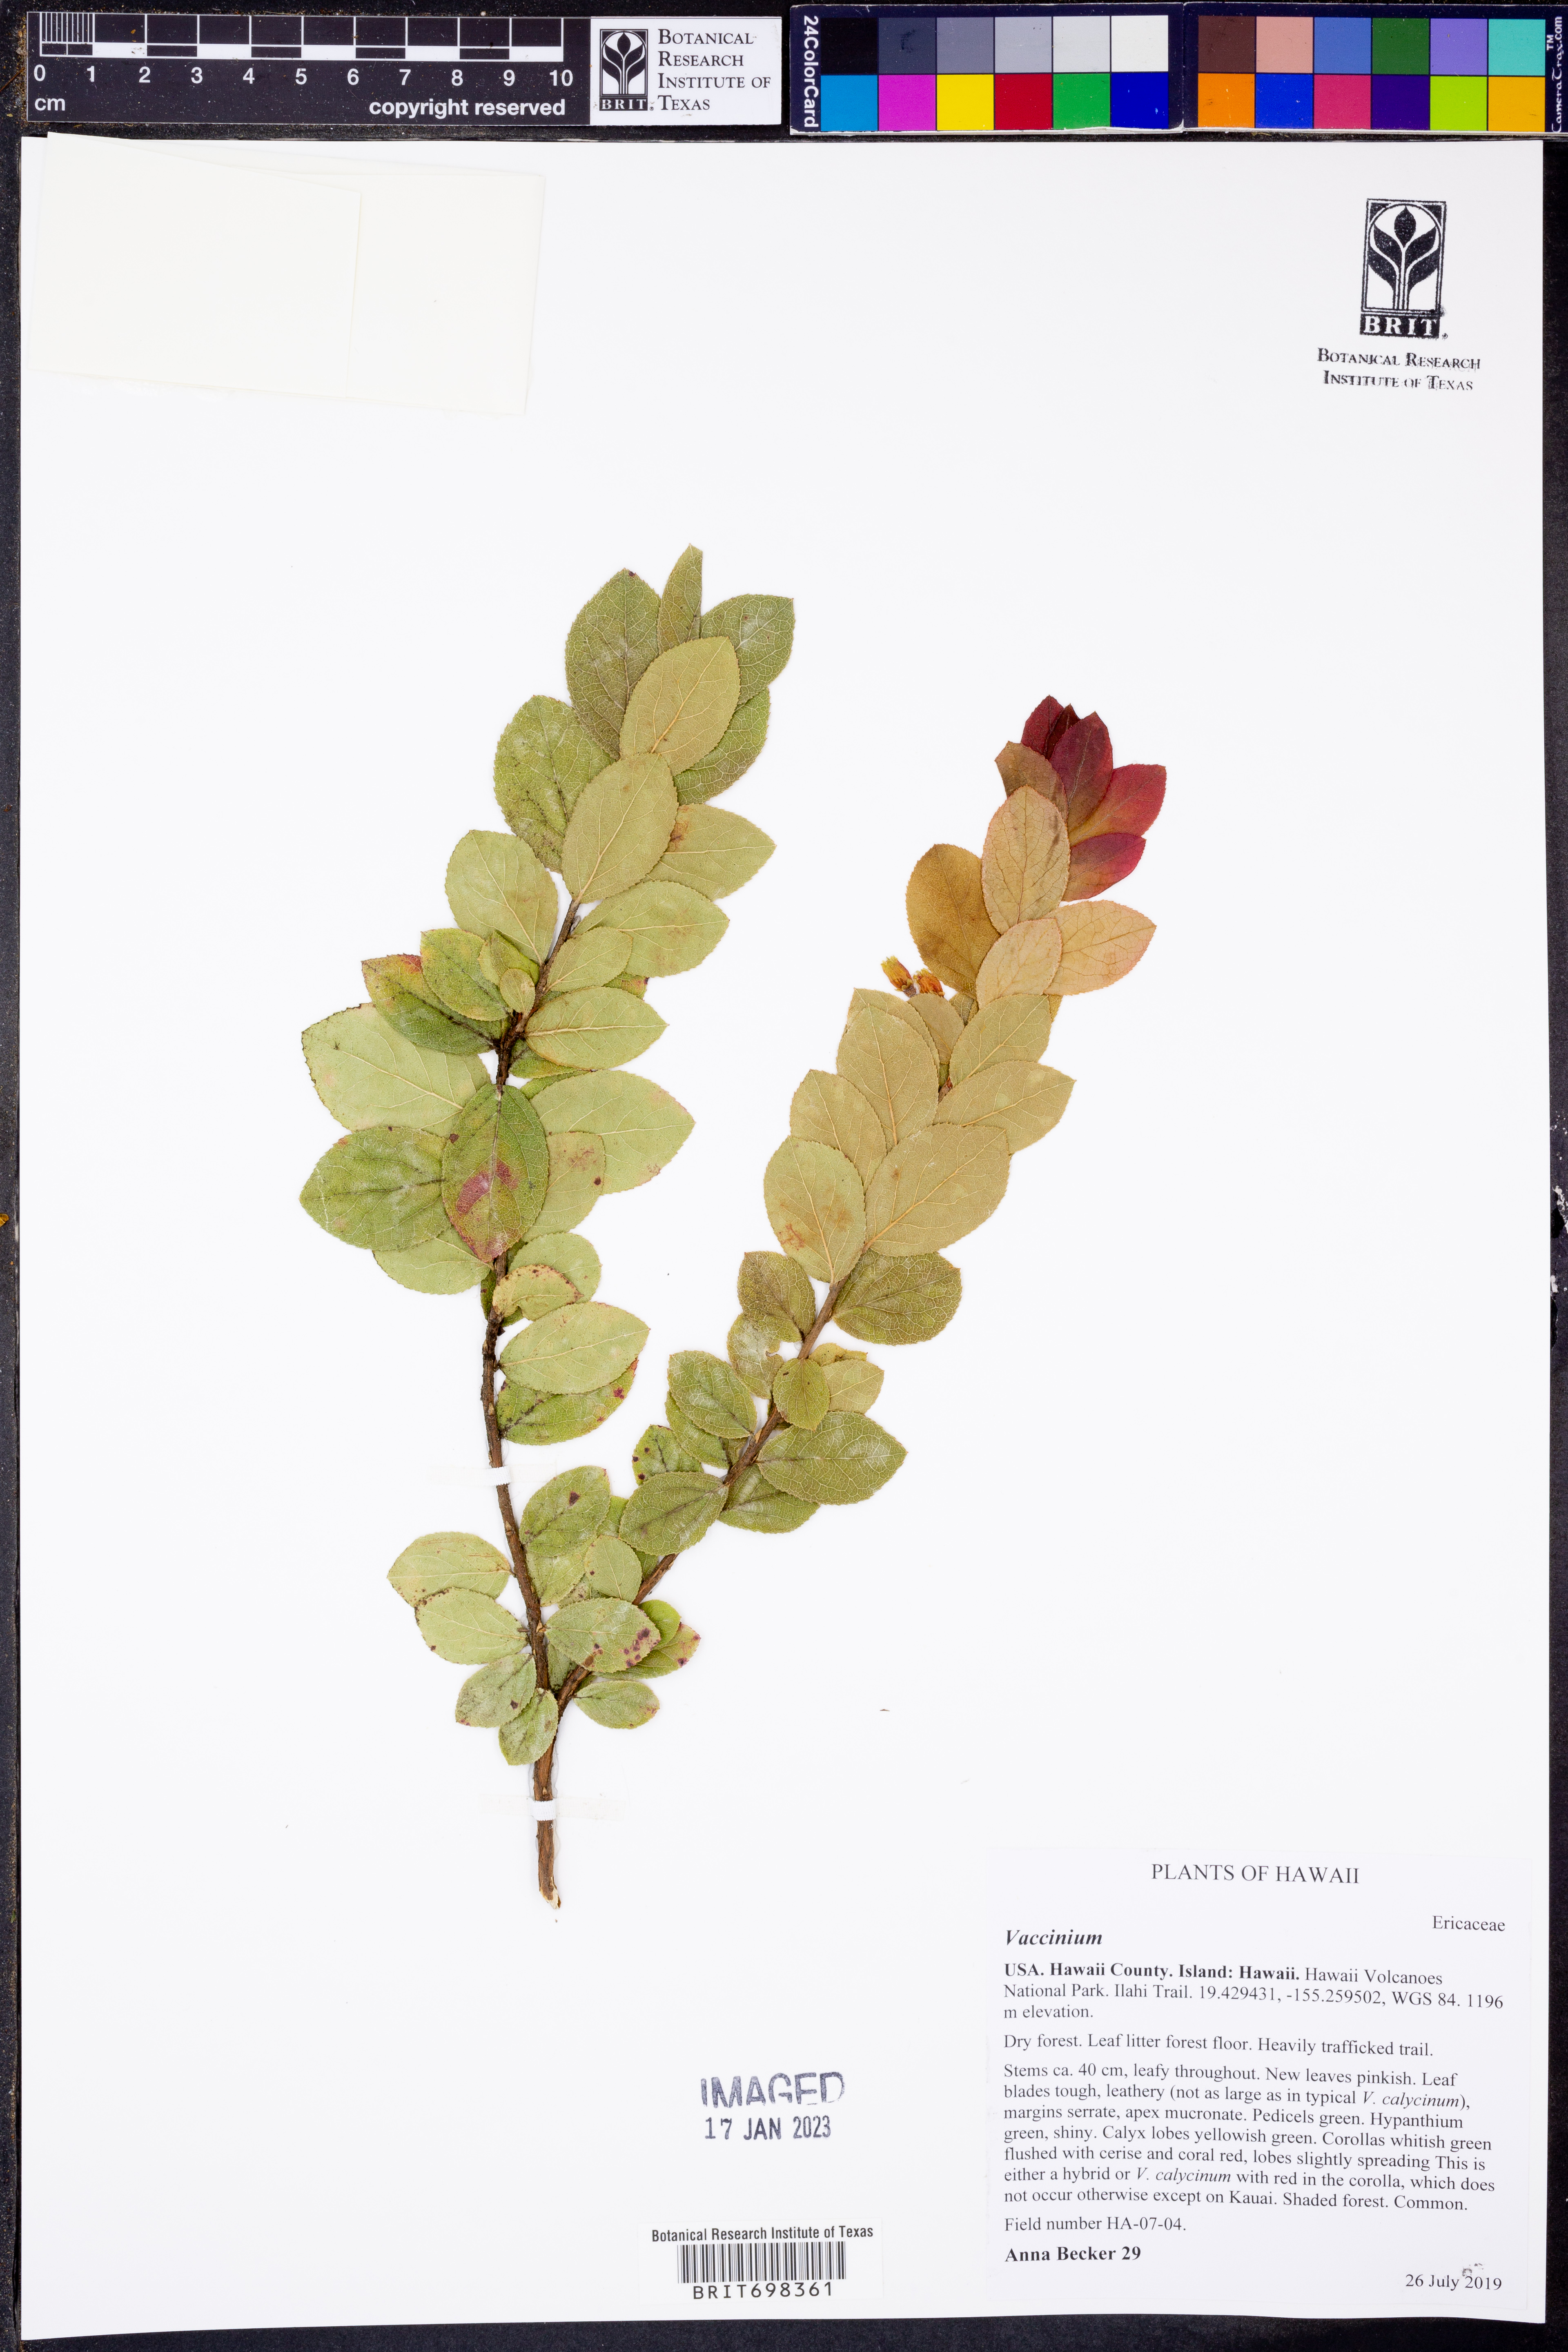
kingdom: Plantae
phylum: Tracheophyta
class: Magnoliopsida
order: Ericales
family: Ericaceae
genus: Vaccinium
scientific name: Vaccinium
